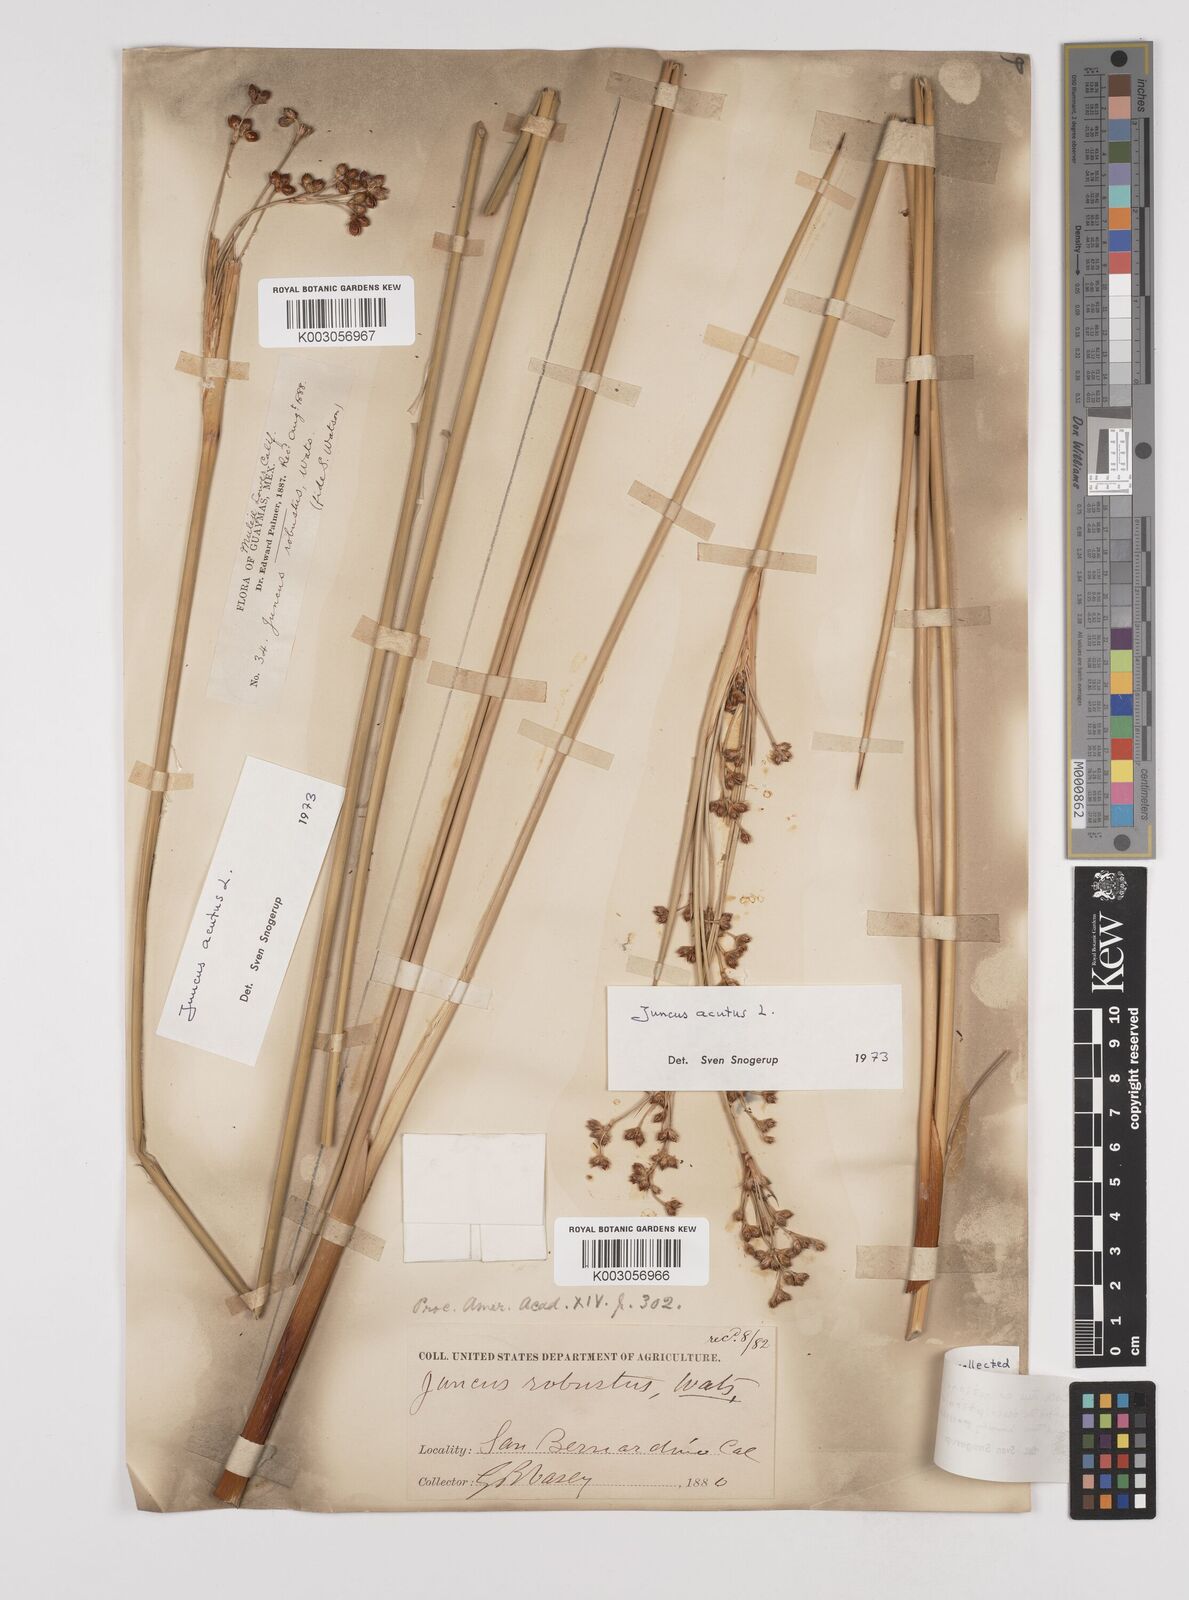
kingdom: Plantae
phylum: Tracheophyta
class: Liliopsida
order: Poales
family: Juncaceae
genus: Juncus
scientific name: Juncus acutus
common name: Sharp rush
